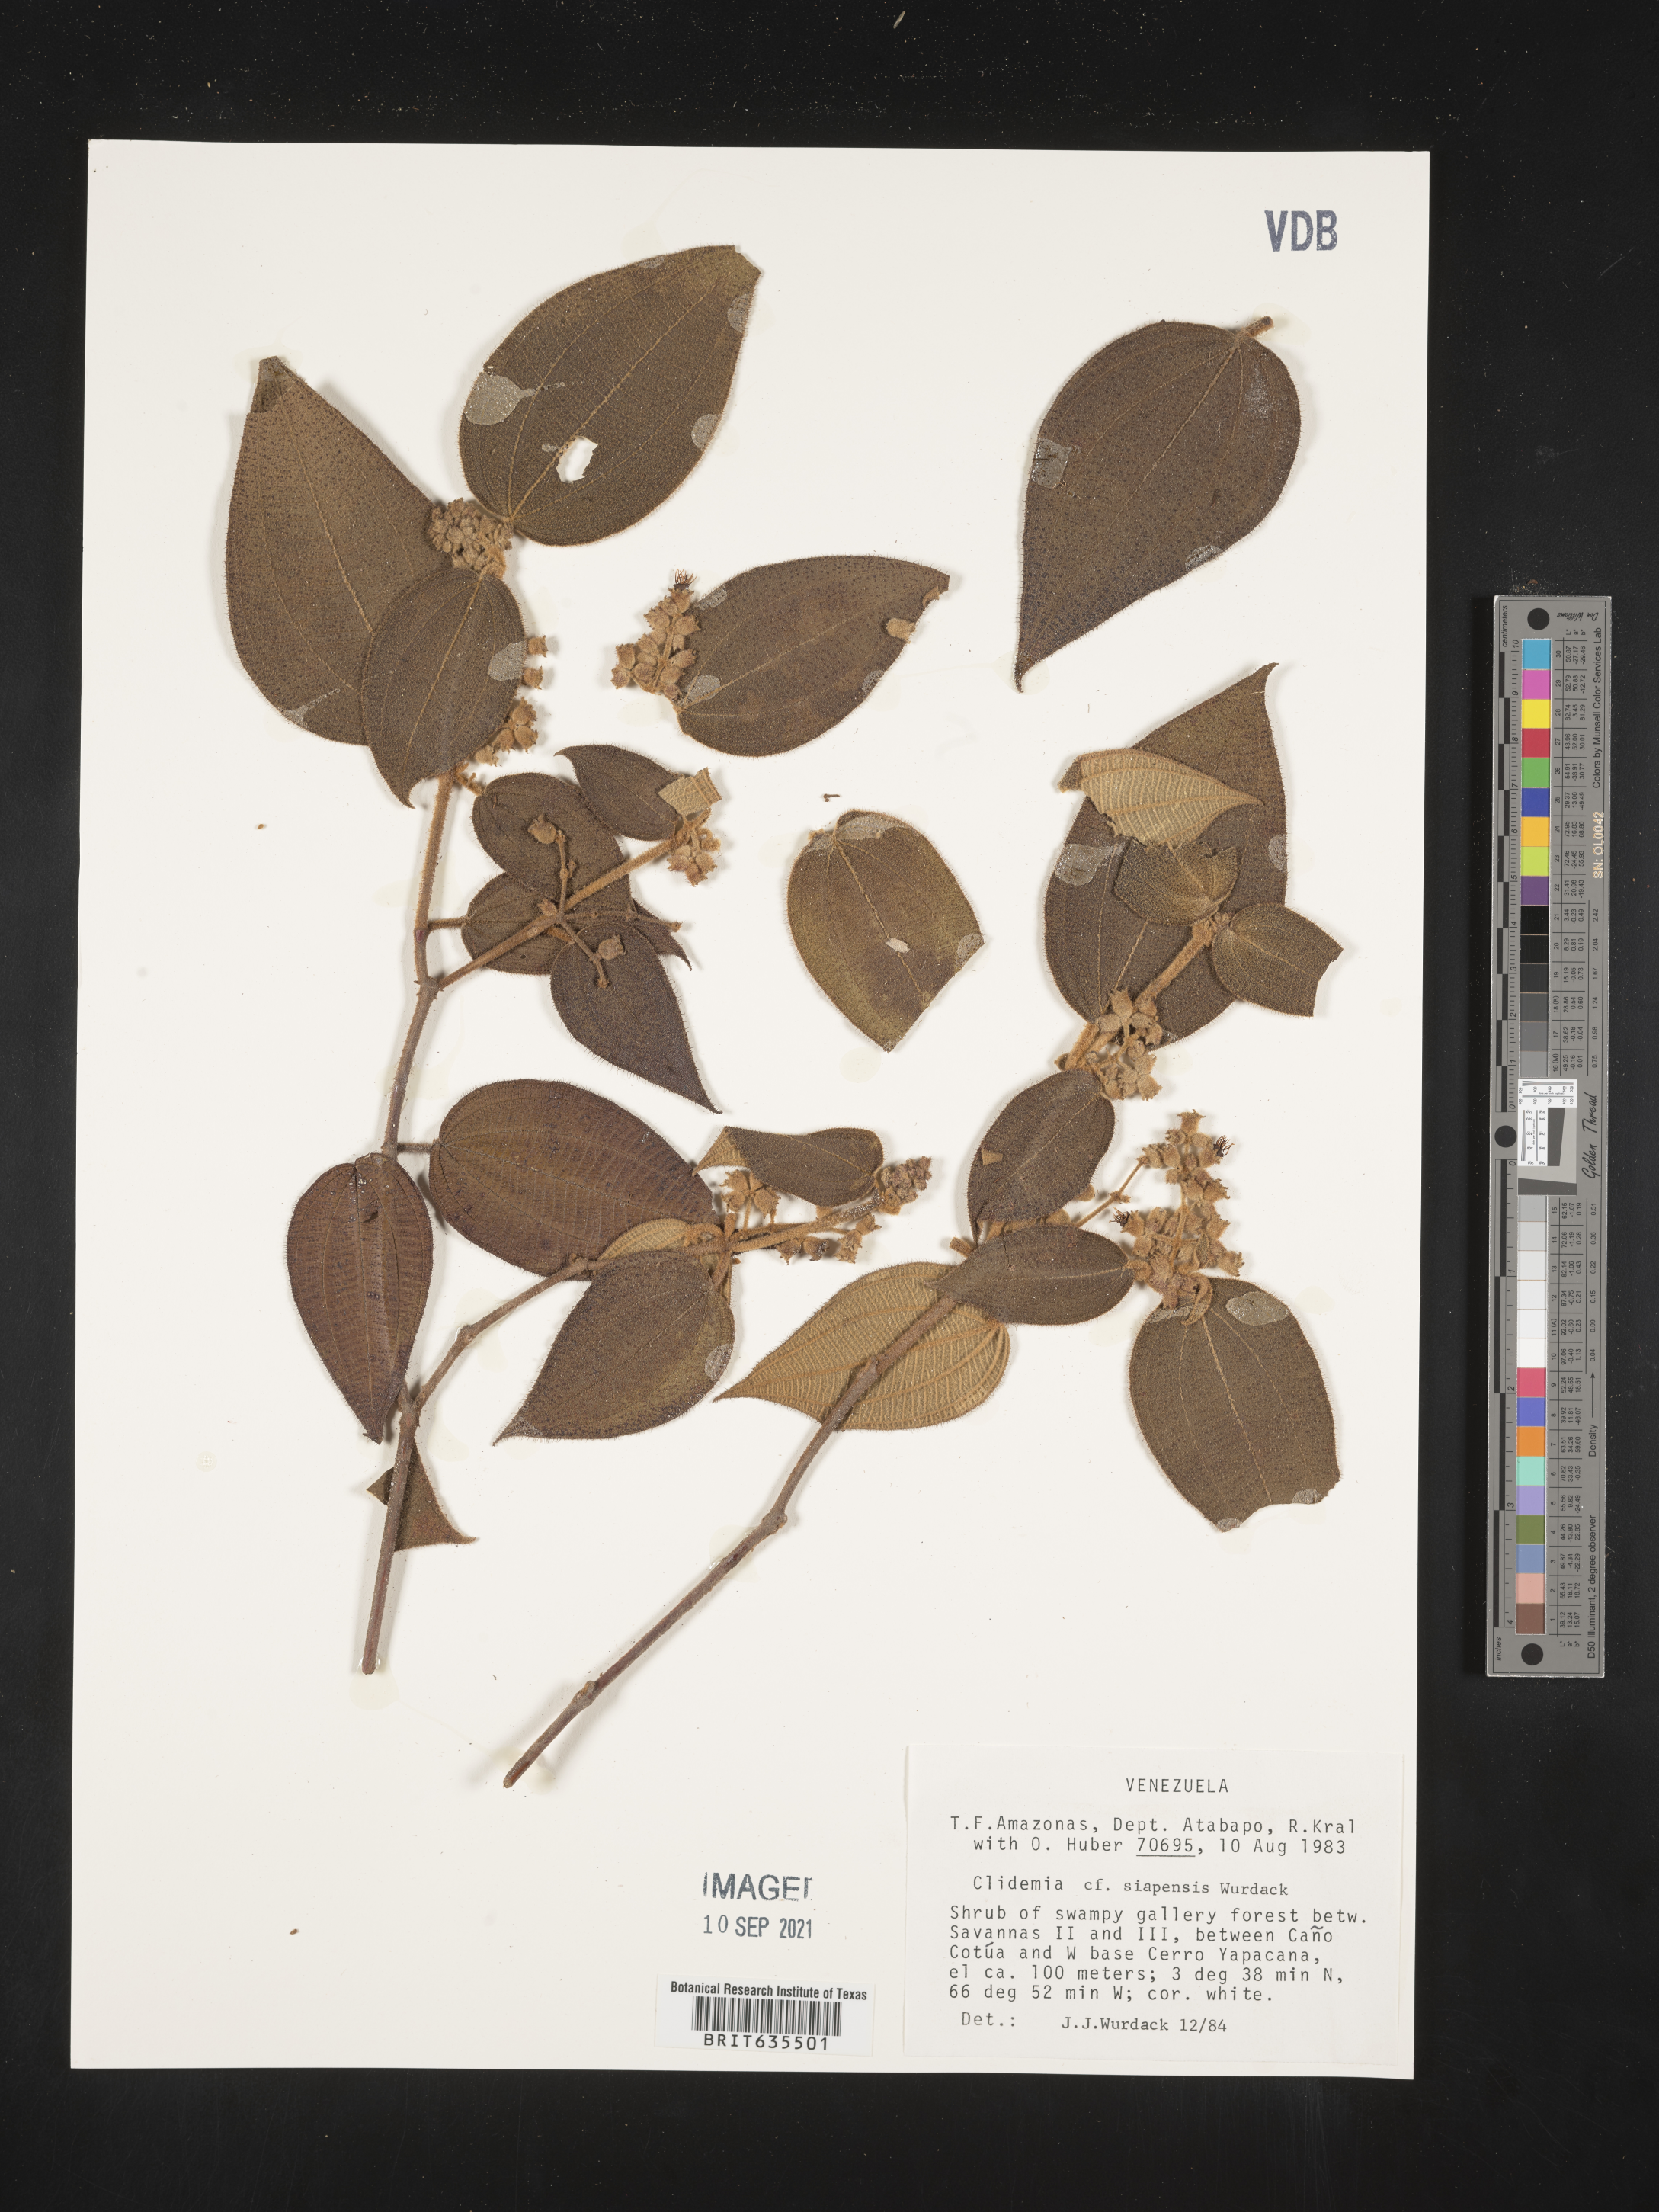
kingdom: Plantae
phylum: Tracheophyta
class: Magnoliopsida
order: Myrtales
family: Melastomataceae
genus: Miconia
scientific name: Miconia
